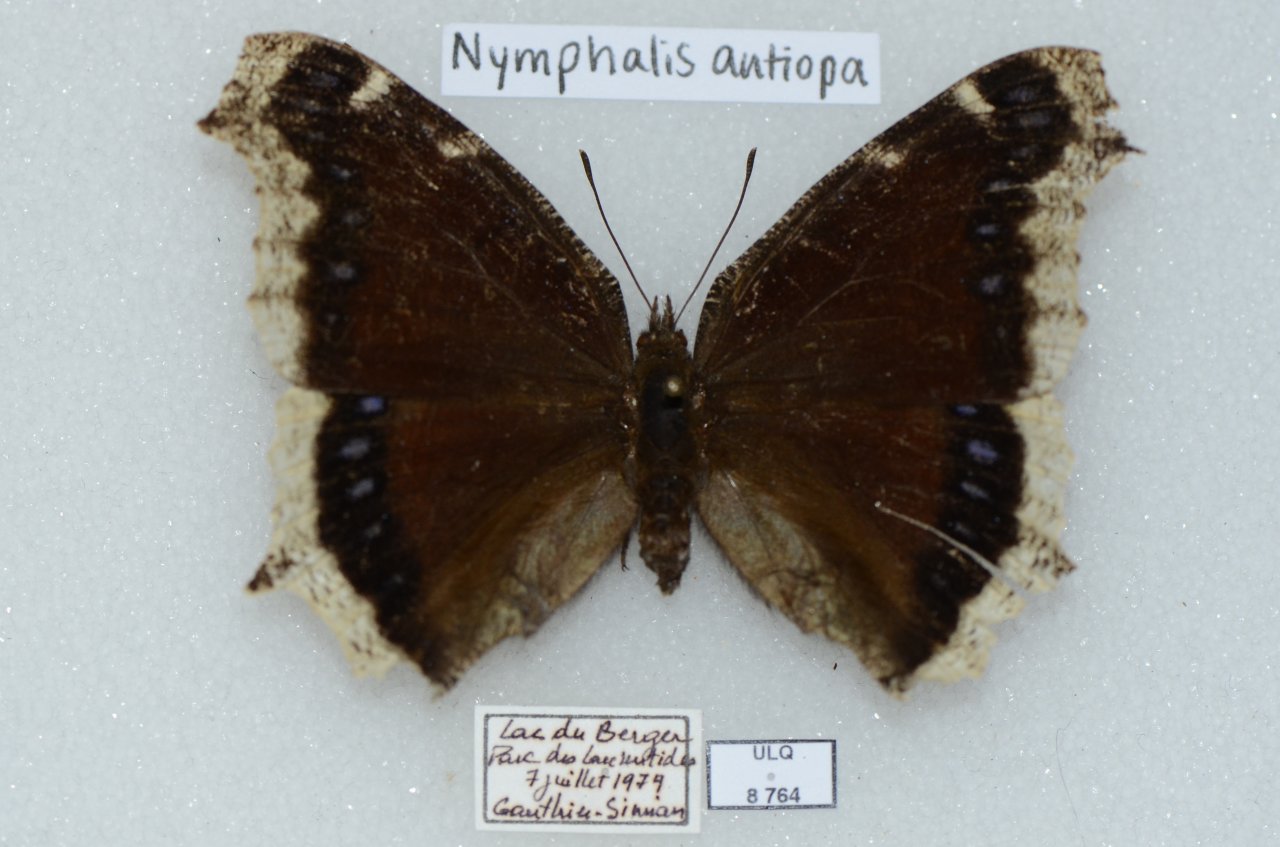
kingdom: Animalia
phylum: Arthropoda
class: Insecta
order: Lepidoptera
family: Nymphalidae
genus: Nymphalis
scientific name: Nymphalis antiopa
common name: Mourning Cloak
